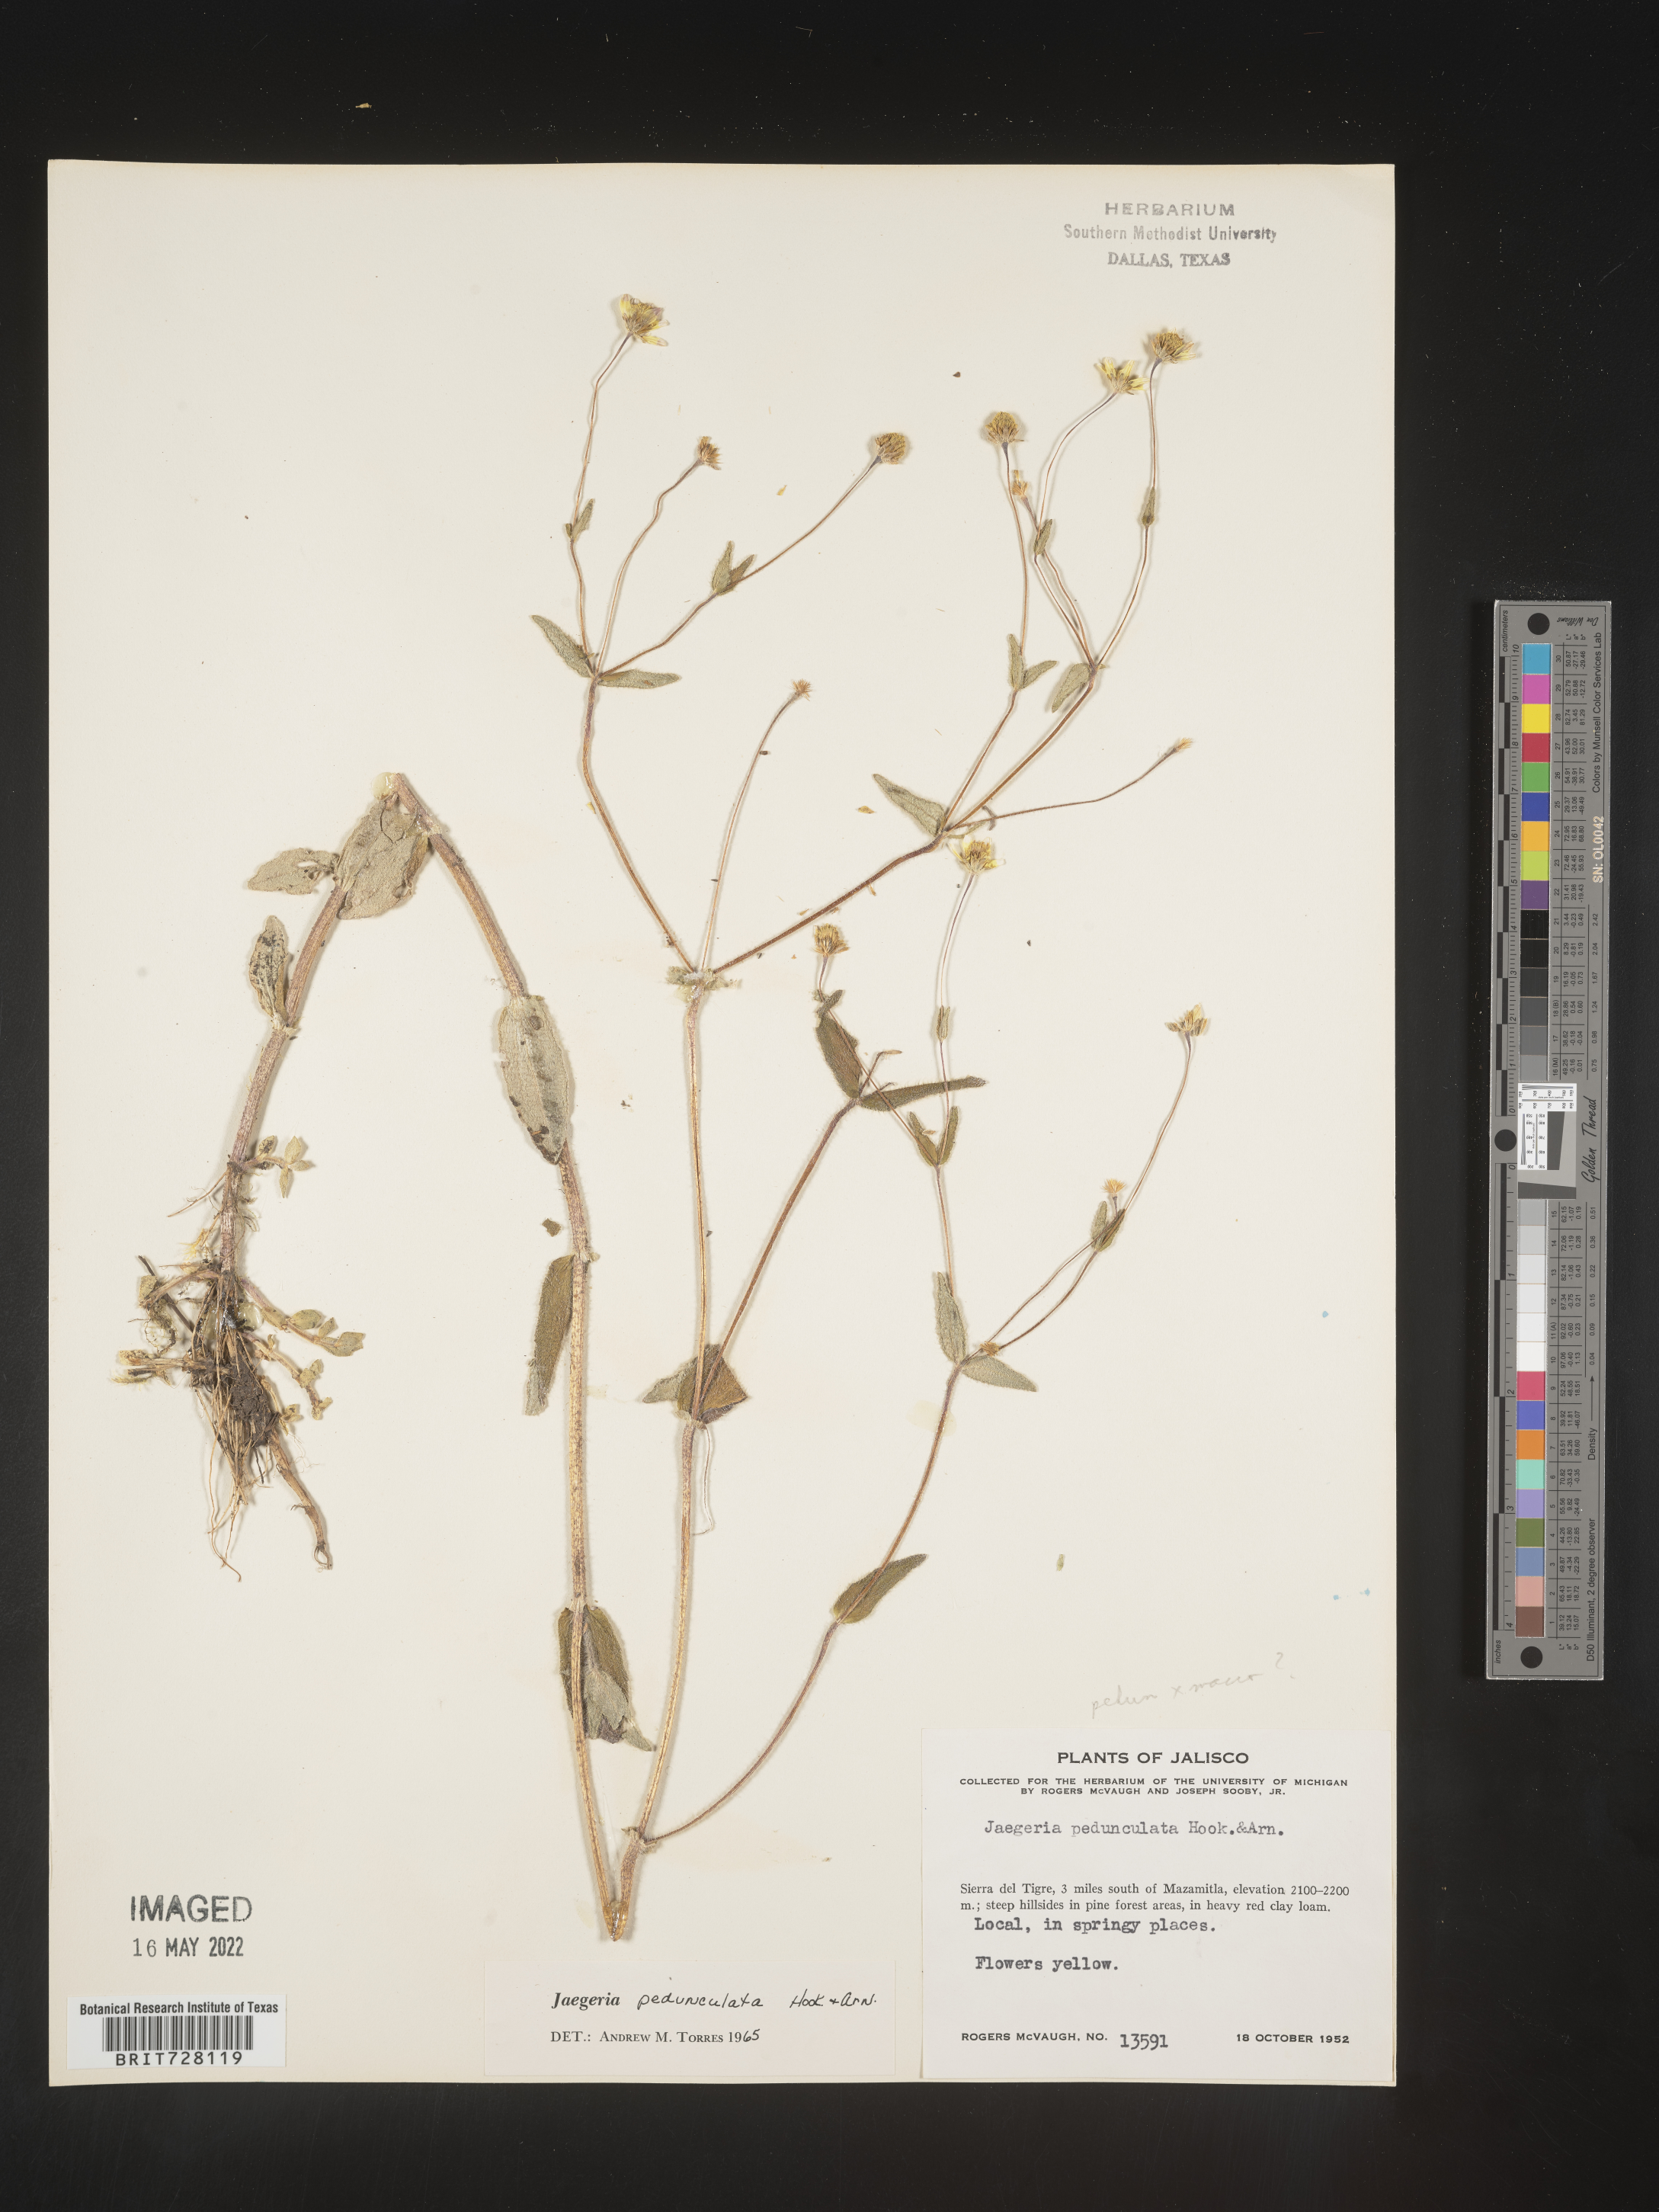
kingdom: Plantae
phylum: Tracheophyta
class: Magnoliopsida
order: Asterales
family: Asteraceae
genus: Jaegeria
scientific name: Jaegeria
